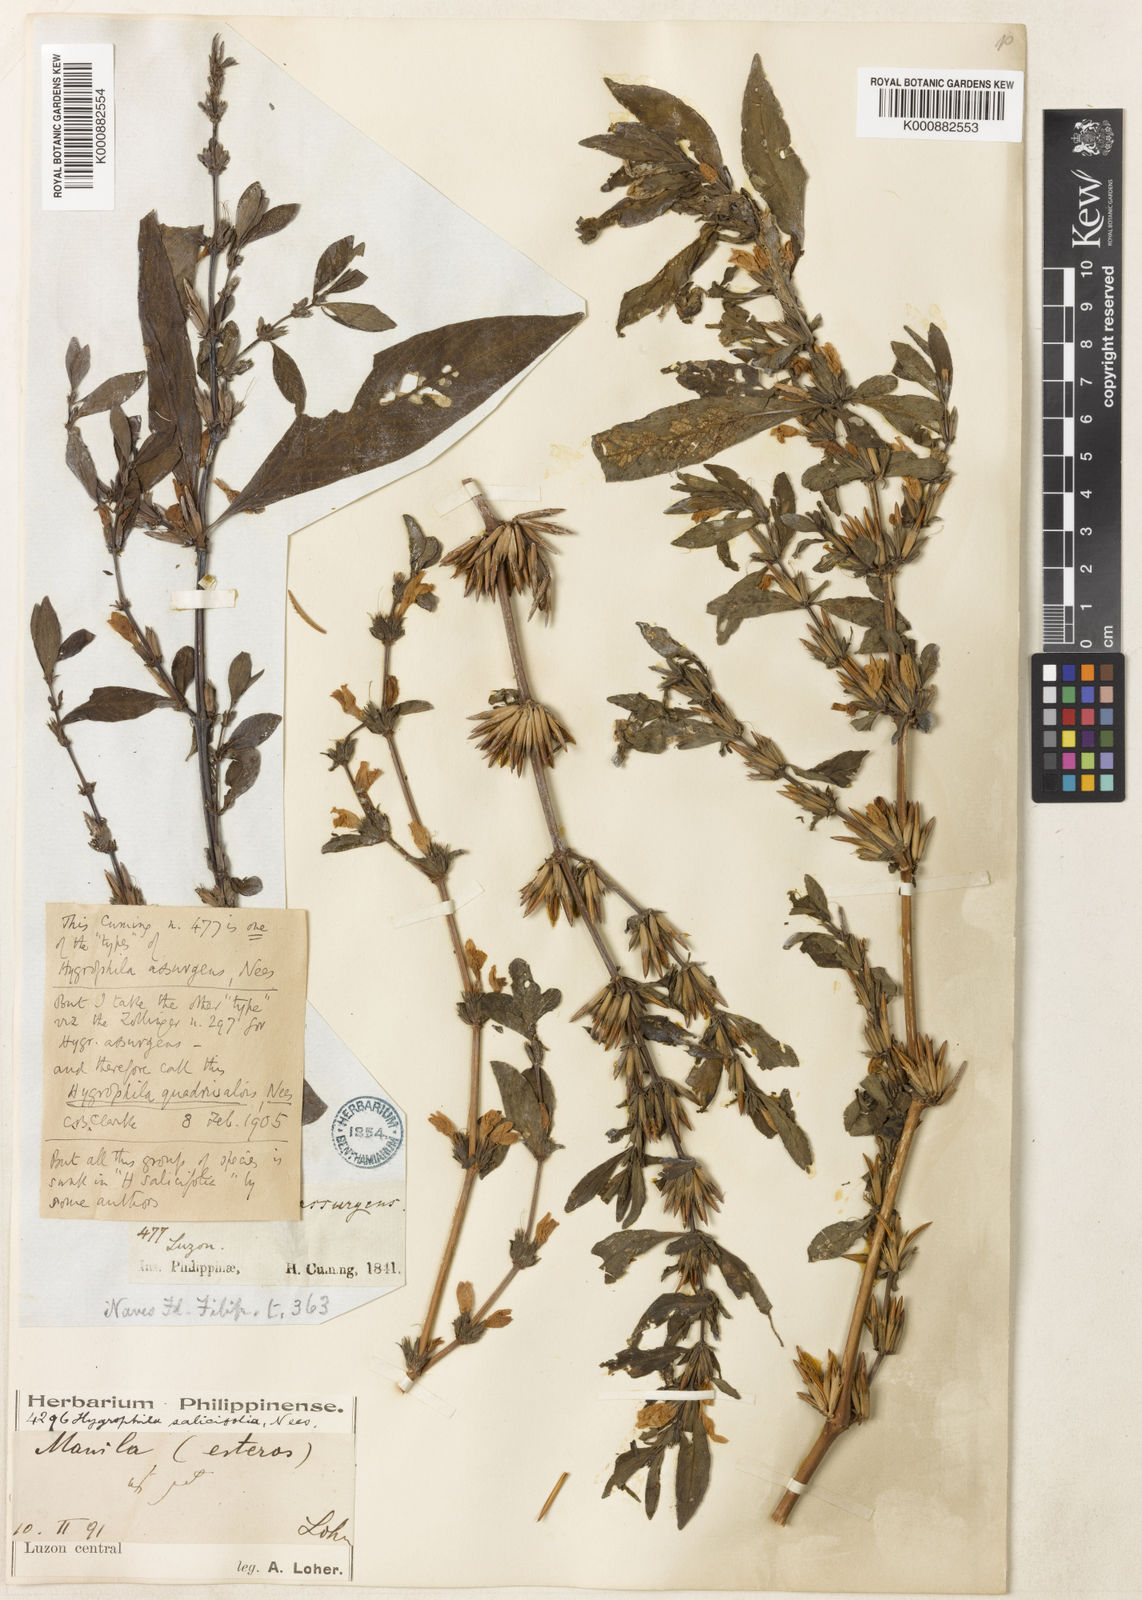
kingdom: Plantae
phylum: Tracheophyta
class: Magnoliopsida
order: Lamiales
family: Acanthaceae
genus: Hygrophila
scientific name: Hygrophila ringens
